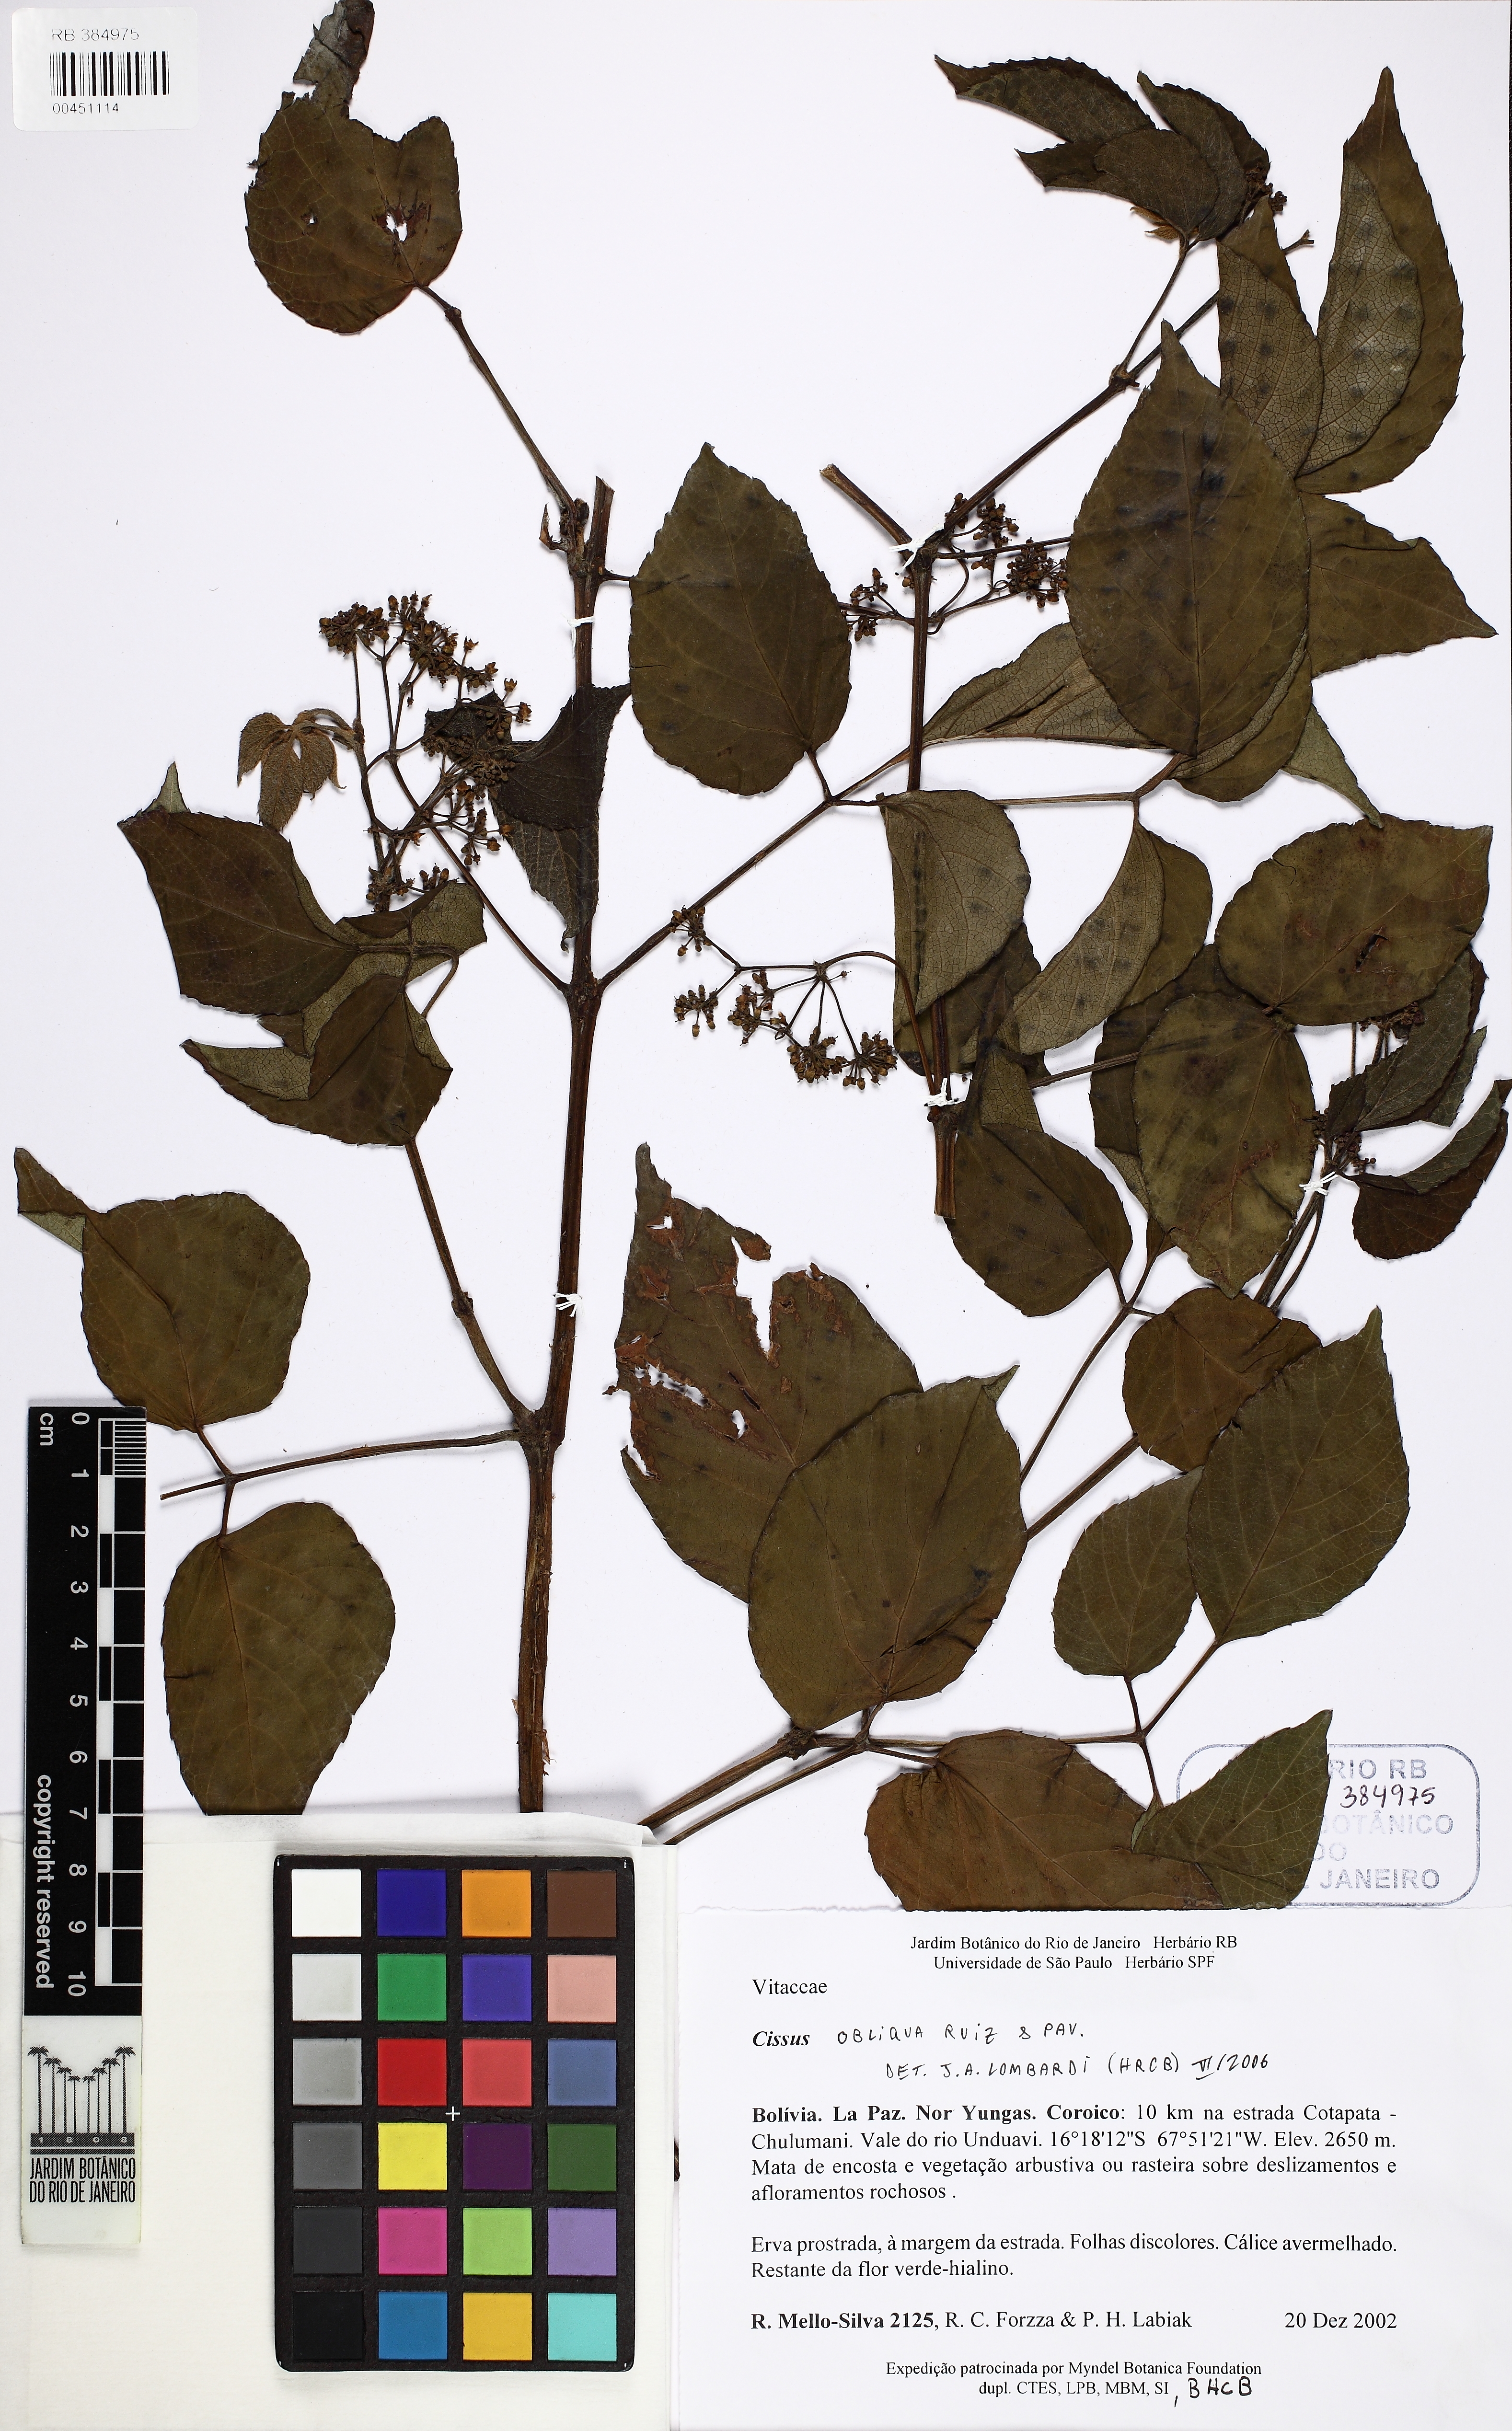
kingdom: Plantae
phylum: Tracheophyta
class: Magnoliopsida
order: Vitales
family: Vitaceae
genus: Cissus
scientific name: Cissus obliqua
